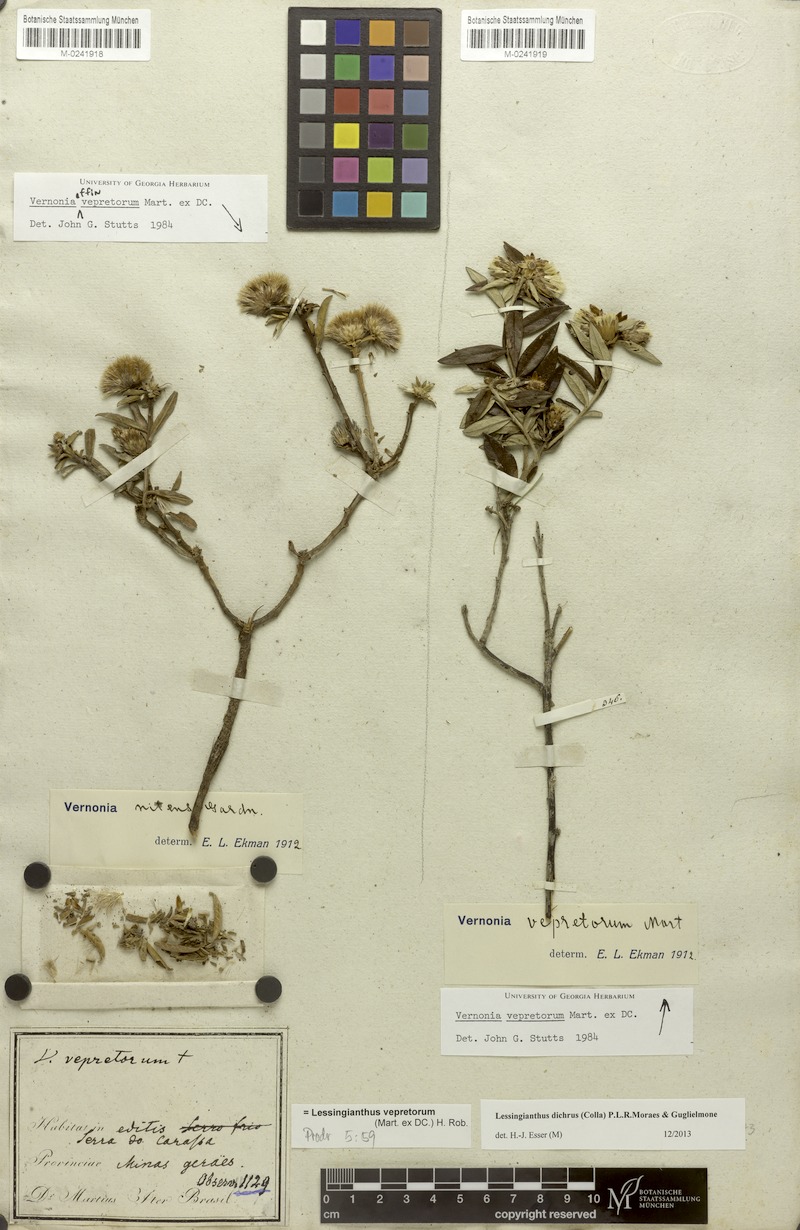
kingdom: Plantae
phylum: Tracheophyta
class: Magnoliopsida
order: Asterales
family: Asteraceae
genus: Lessingianthus
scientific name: Lessingianthus dichrous
